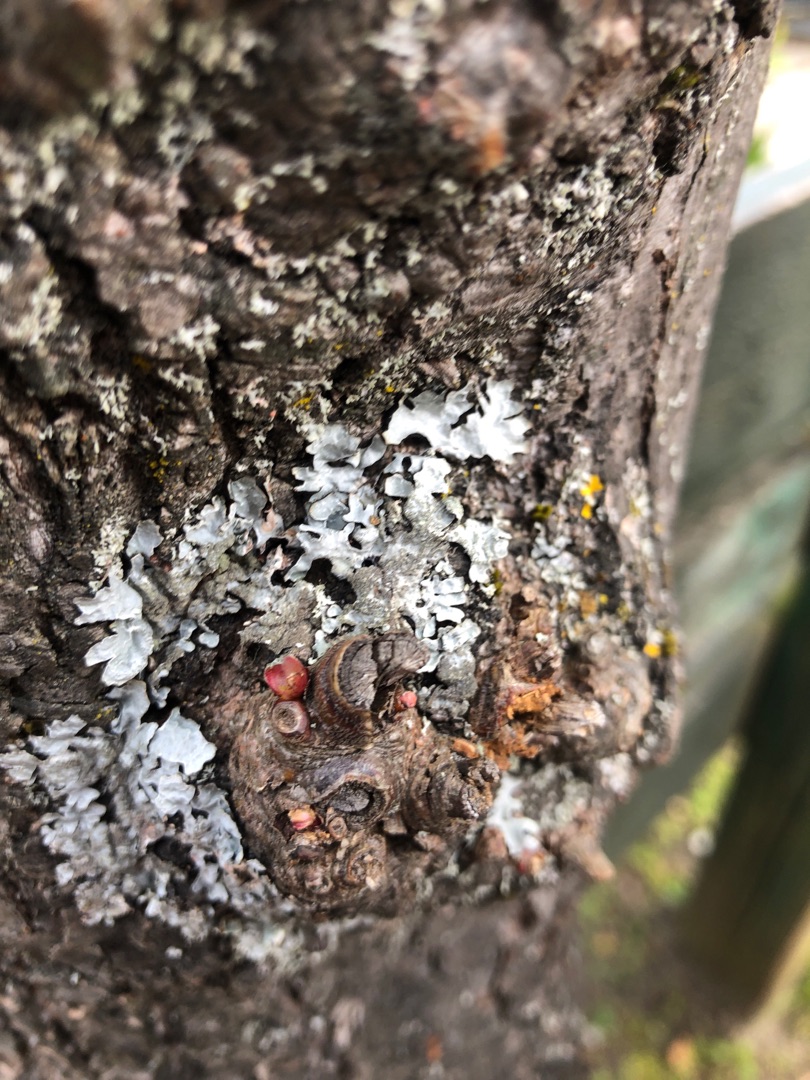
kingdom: Fungi
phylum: Ascomycota
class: Lecanoromycetes
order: Lecanorales
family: Parmeliaceae
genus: Parmelia
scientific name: Parmelia sulcata
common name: Rynket skållav
